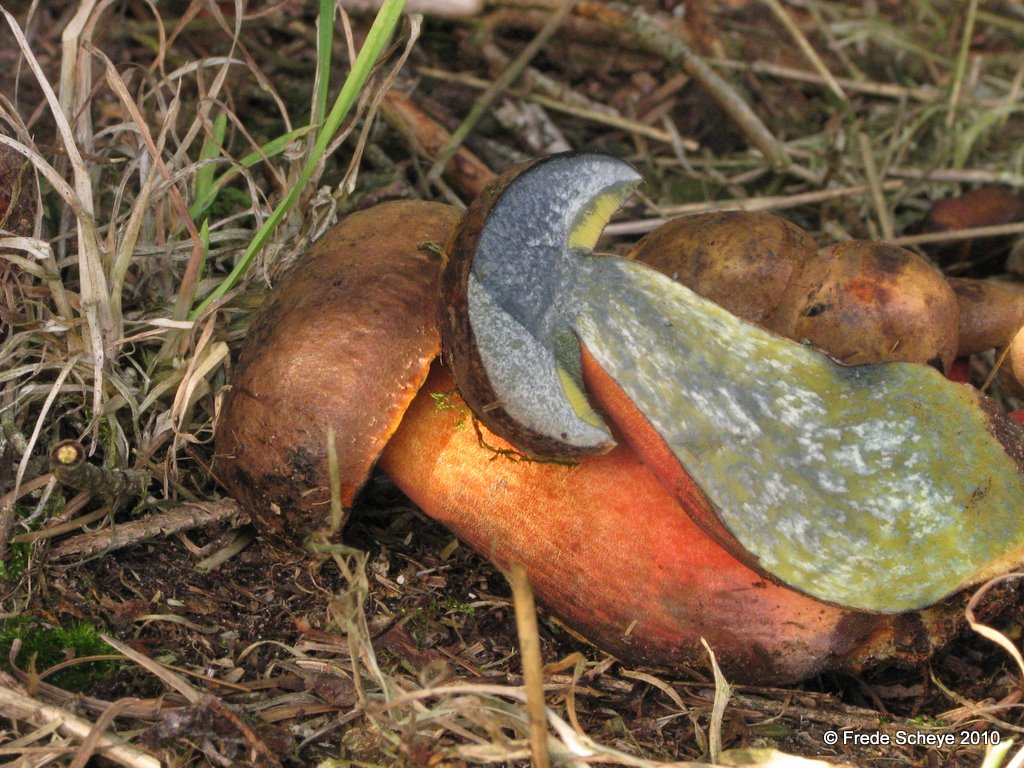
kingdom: Fungi
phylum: Basidiomycota
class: Agaricomycetes
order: Boletales
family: Boletaceae
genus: Neoboletus
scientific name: Neoboletus erythropus
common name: punktstokket indigorørhat
